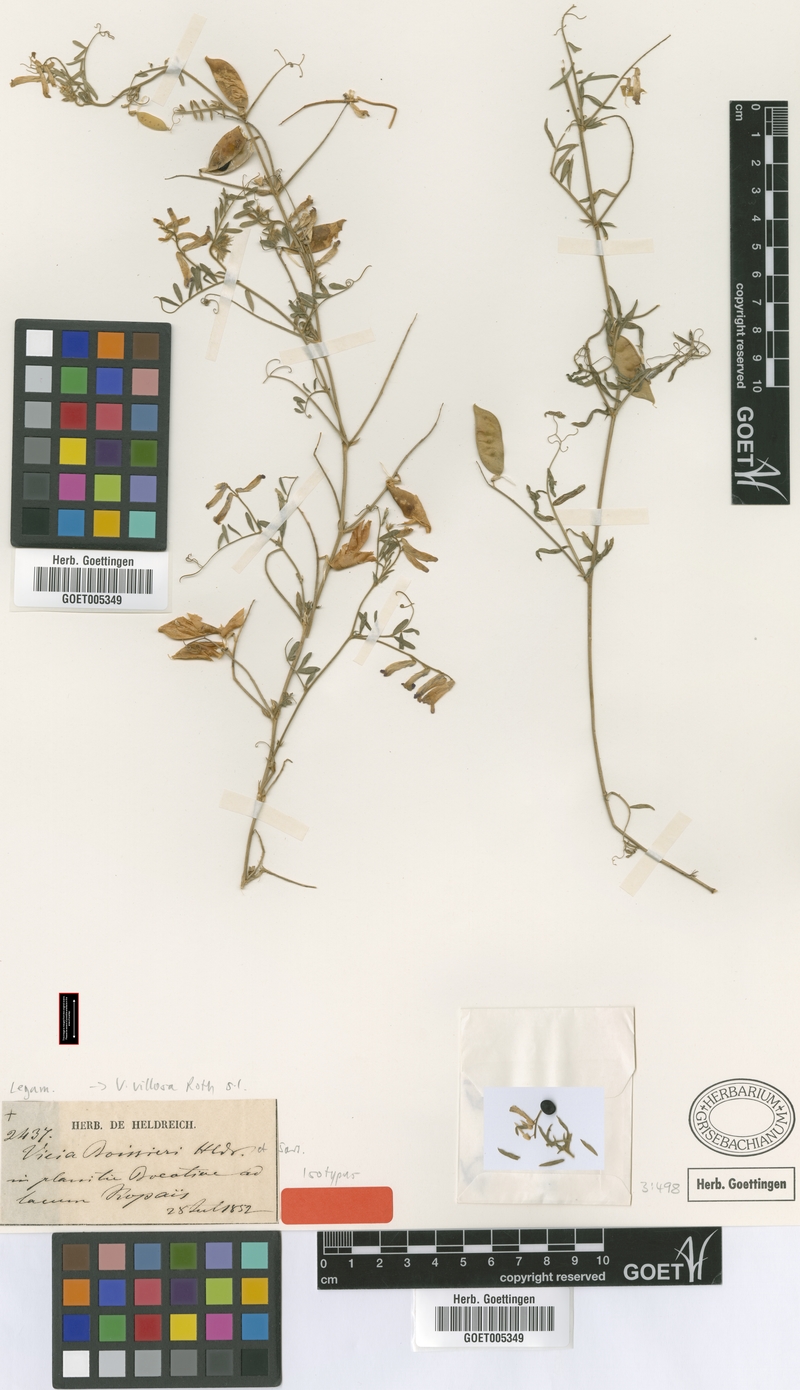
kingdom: Plantae
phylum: Tracheophyta
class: Magnoliopsida
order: Fabales
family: Fabaceae
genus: Vicia
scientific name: Vicia villosa
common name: Fodder vetch
